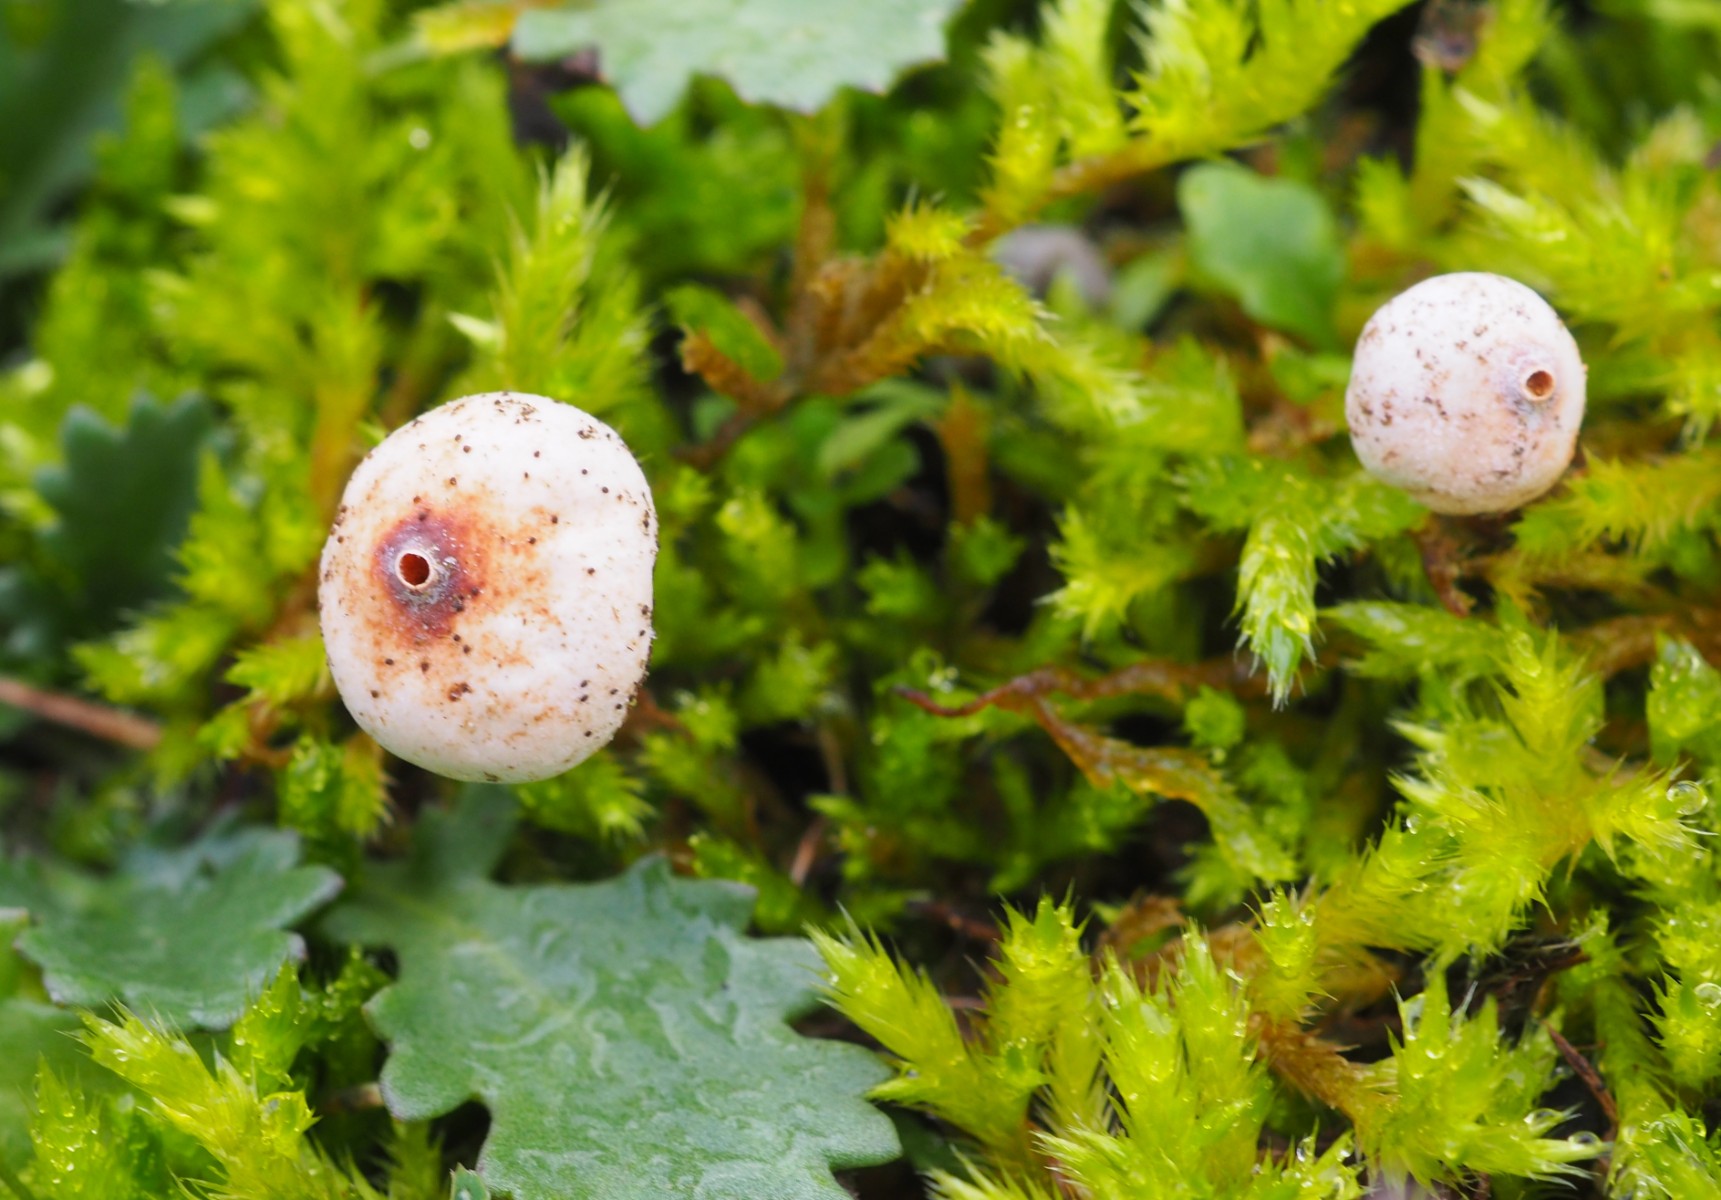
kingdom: Fungi
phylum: Basidiomycota
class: Agaricomycetes
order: Agaricales
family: Agaricaceae
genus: Tulostoma
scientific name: Tulostoma brumale
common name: vinter-stilkbovist
